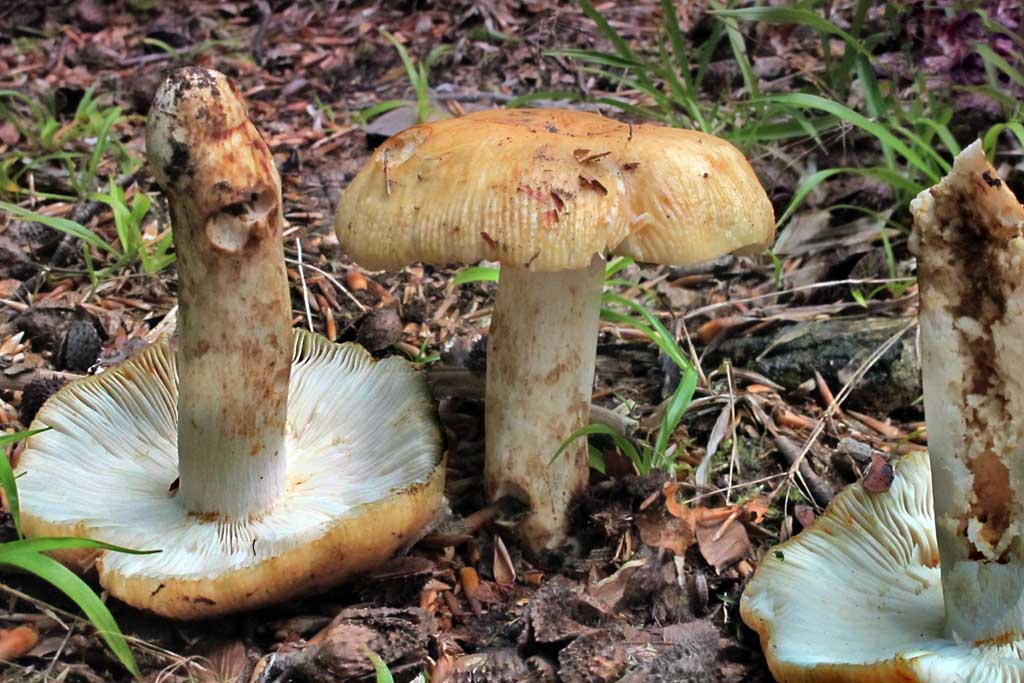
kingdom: Fungi
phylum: Basidiomycota
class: Agaricomycetes
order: Russulales
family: Russulaceae
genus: Russula
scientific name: Russula grata
